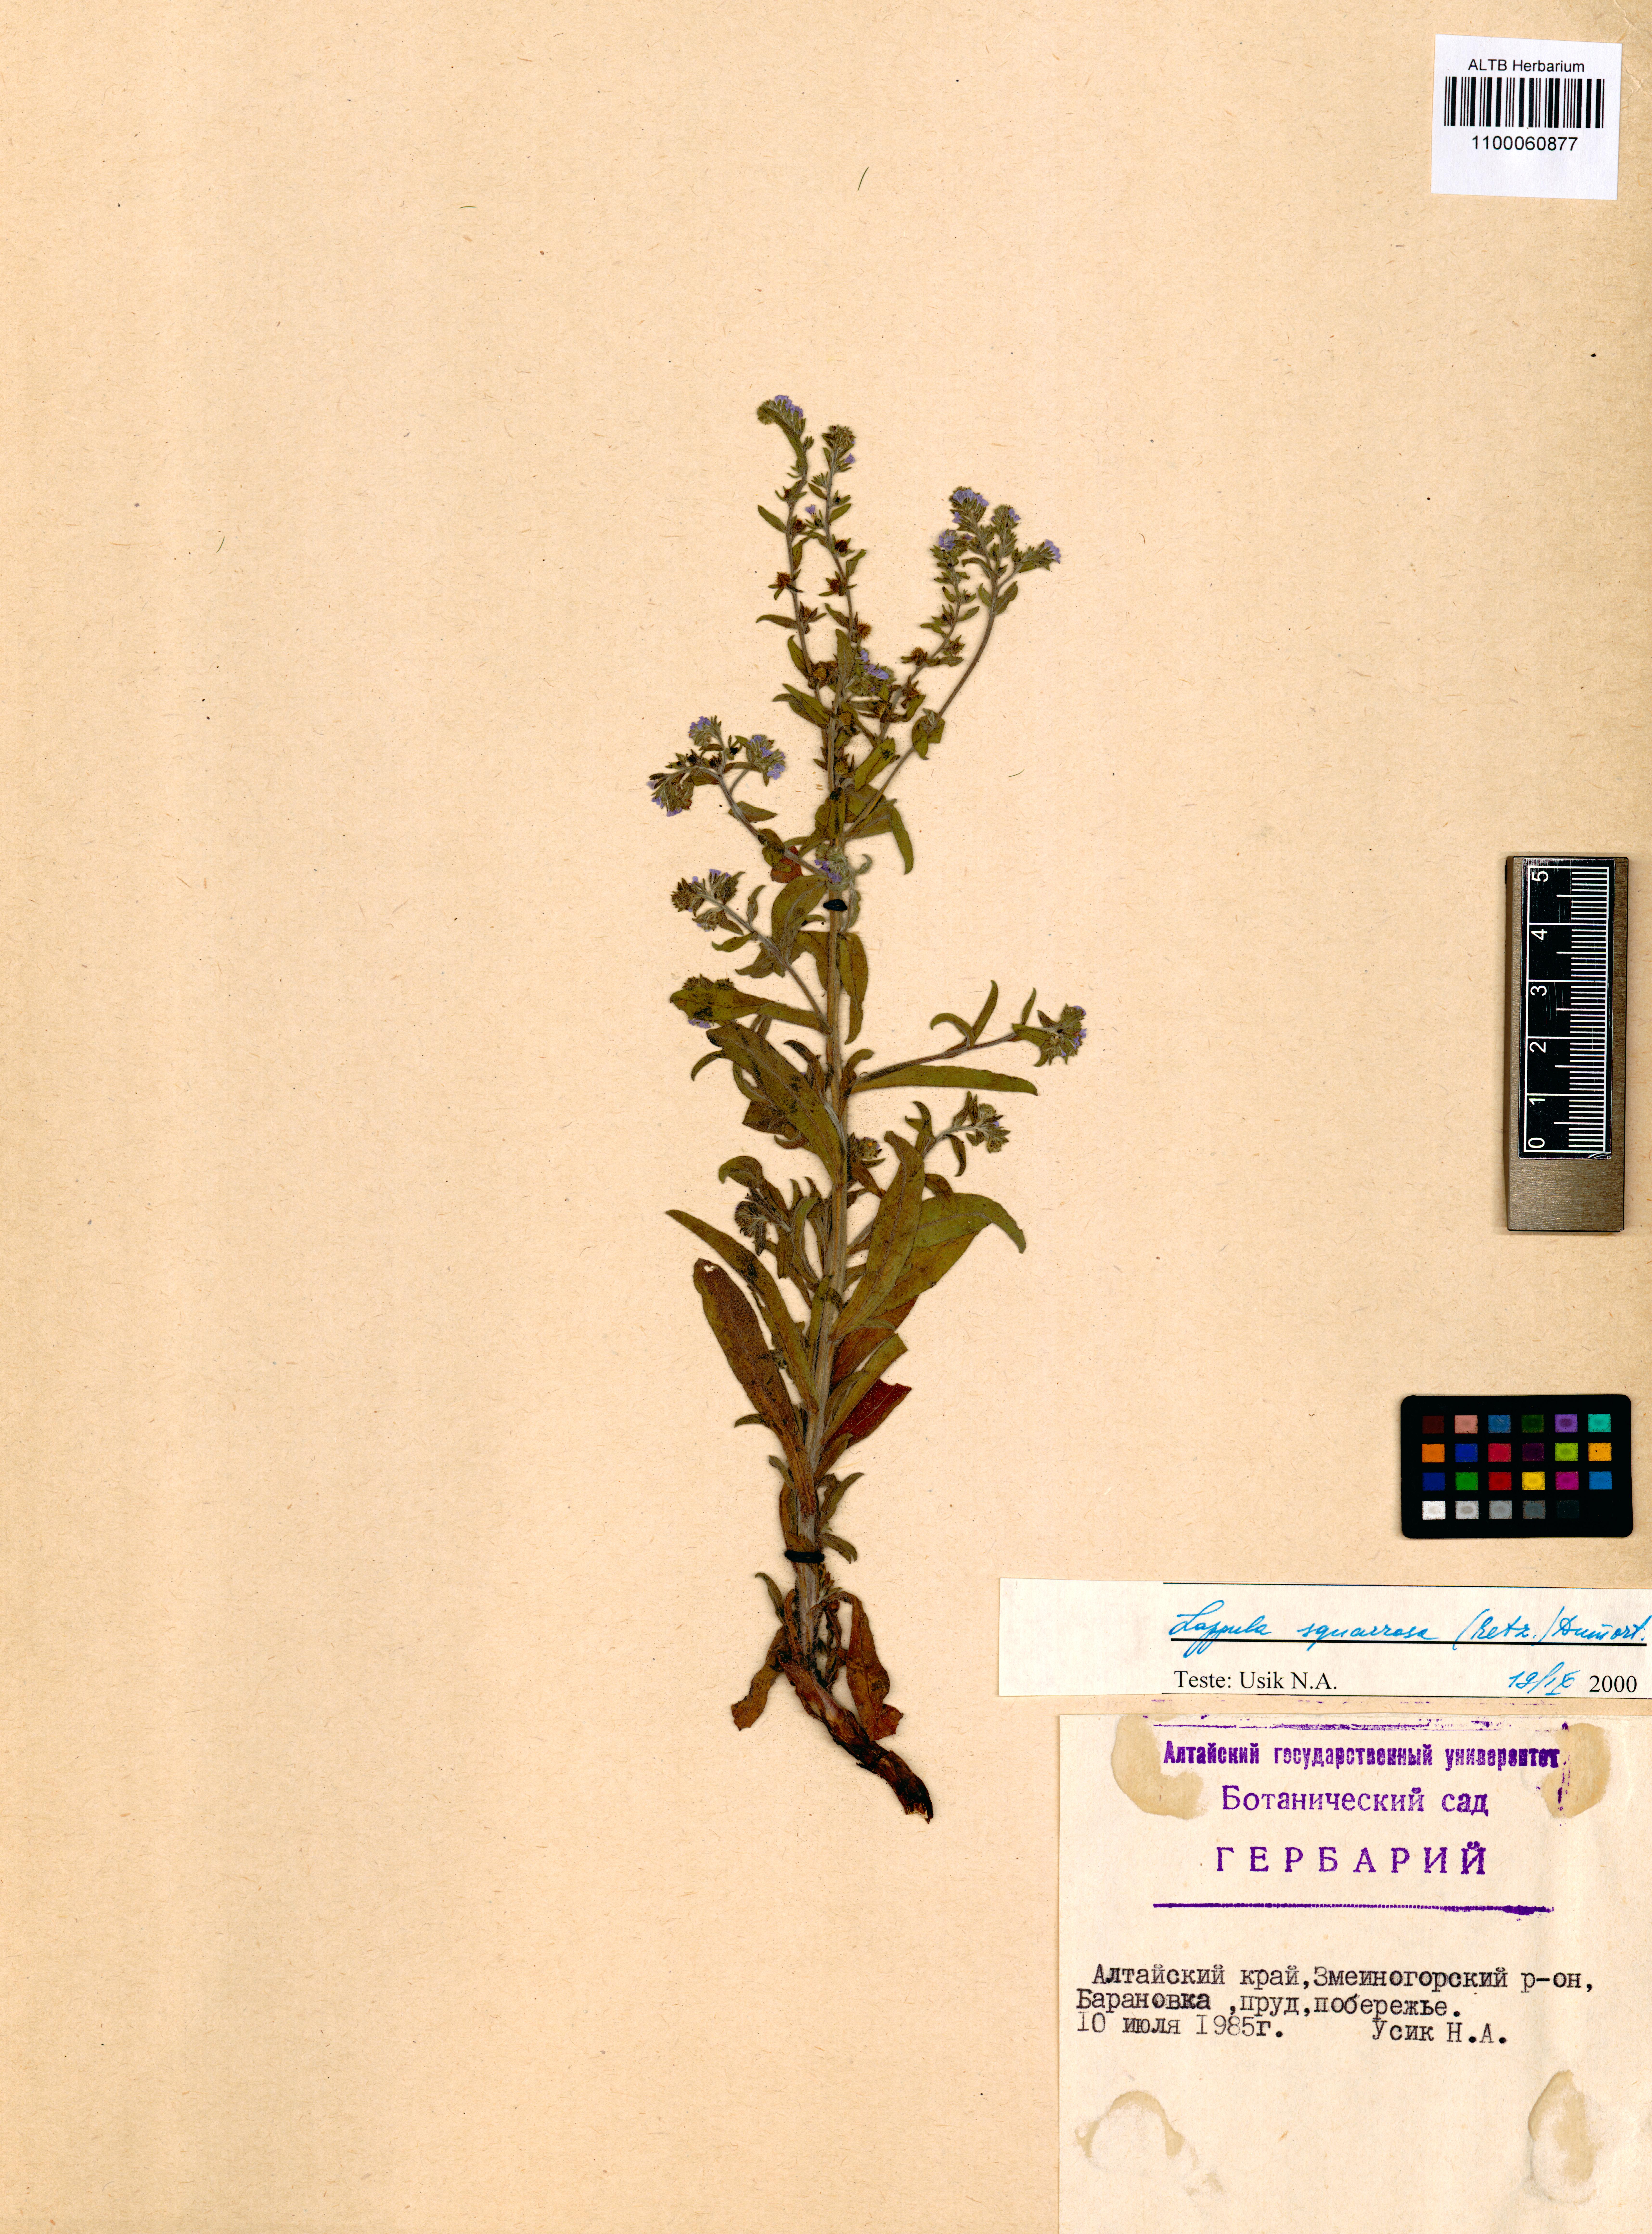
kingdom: Plantae
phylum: Tracheophyta
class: Magnoliopsida
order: Boraginales
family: Boraginaceae
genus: Lappula
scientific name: Lappula squarrosa
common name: European stickseed
